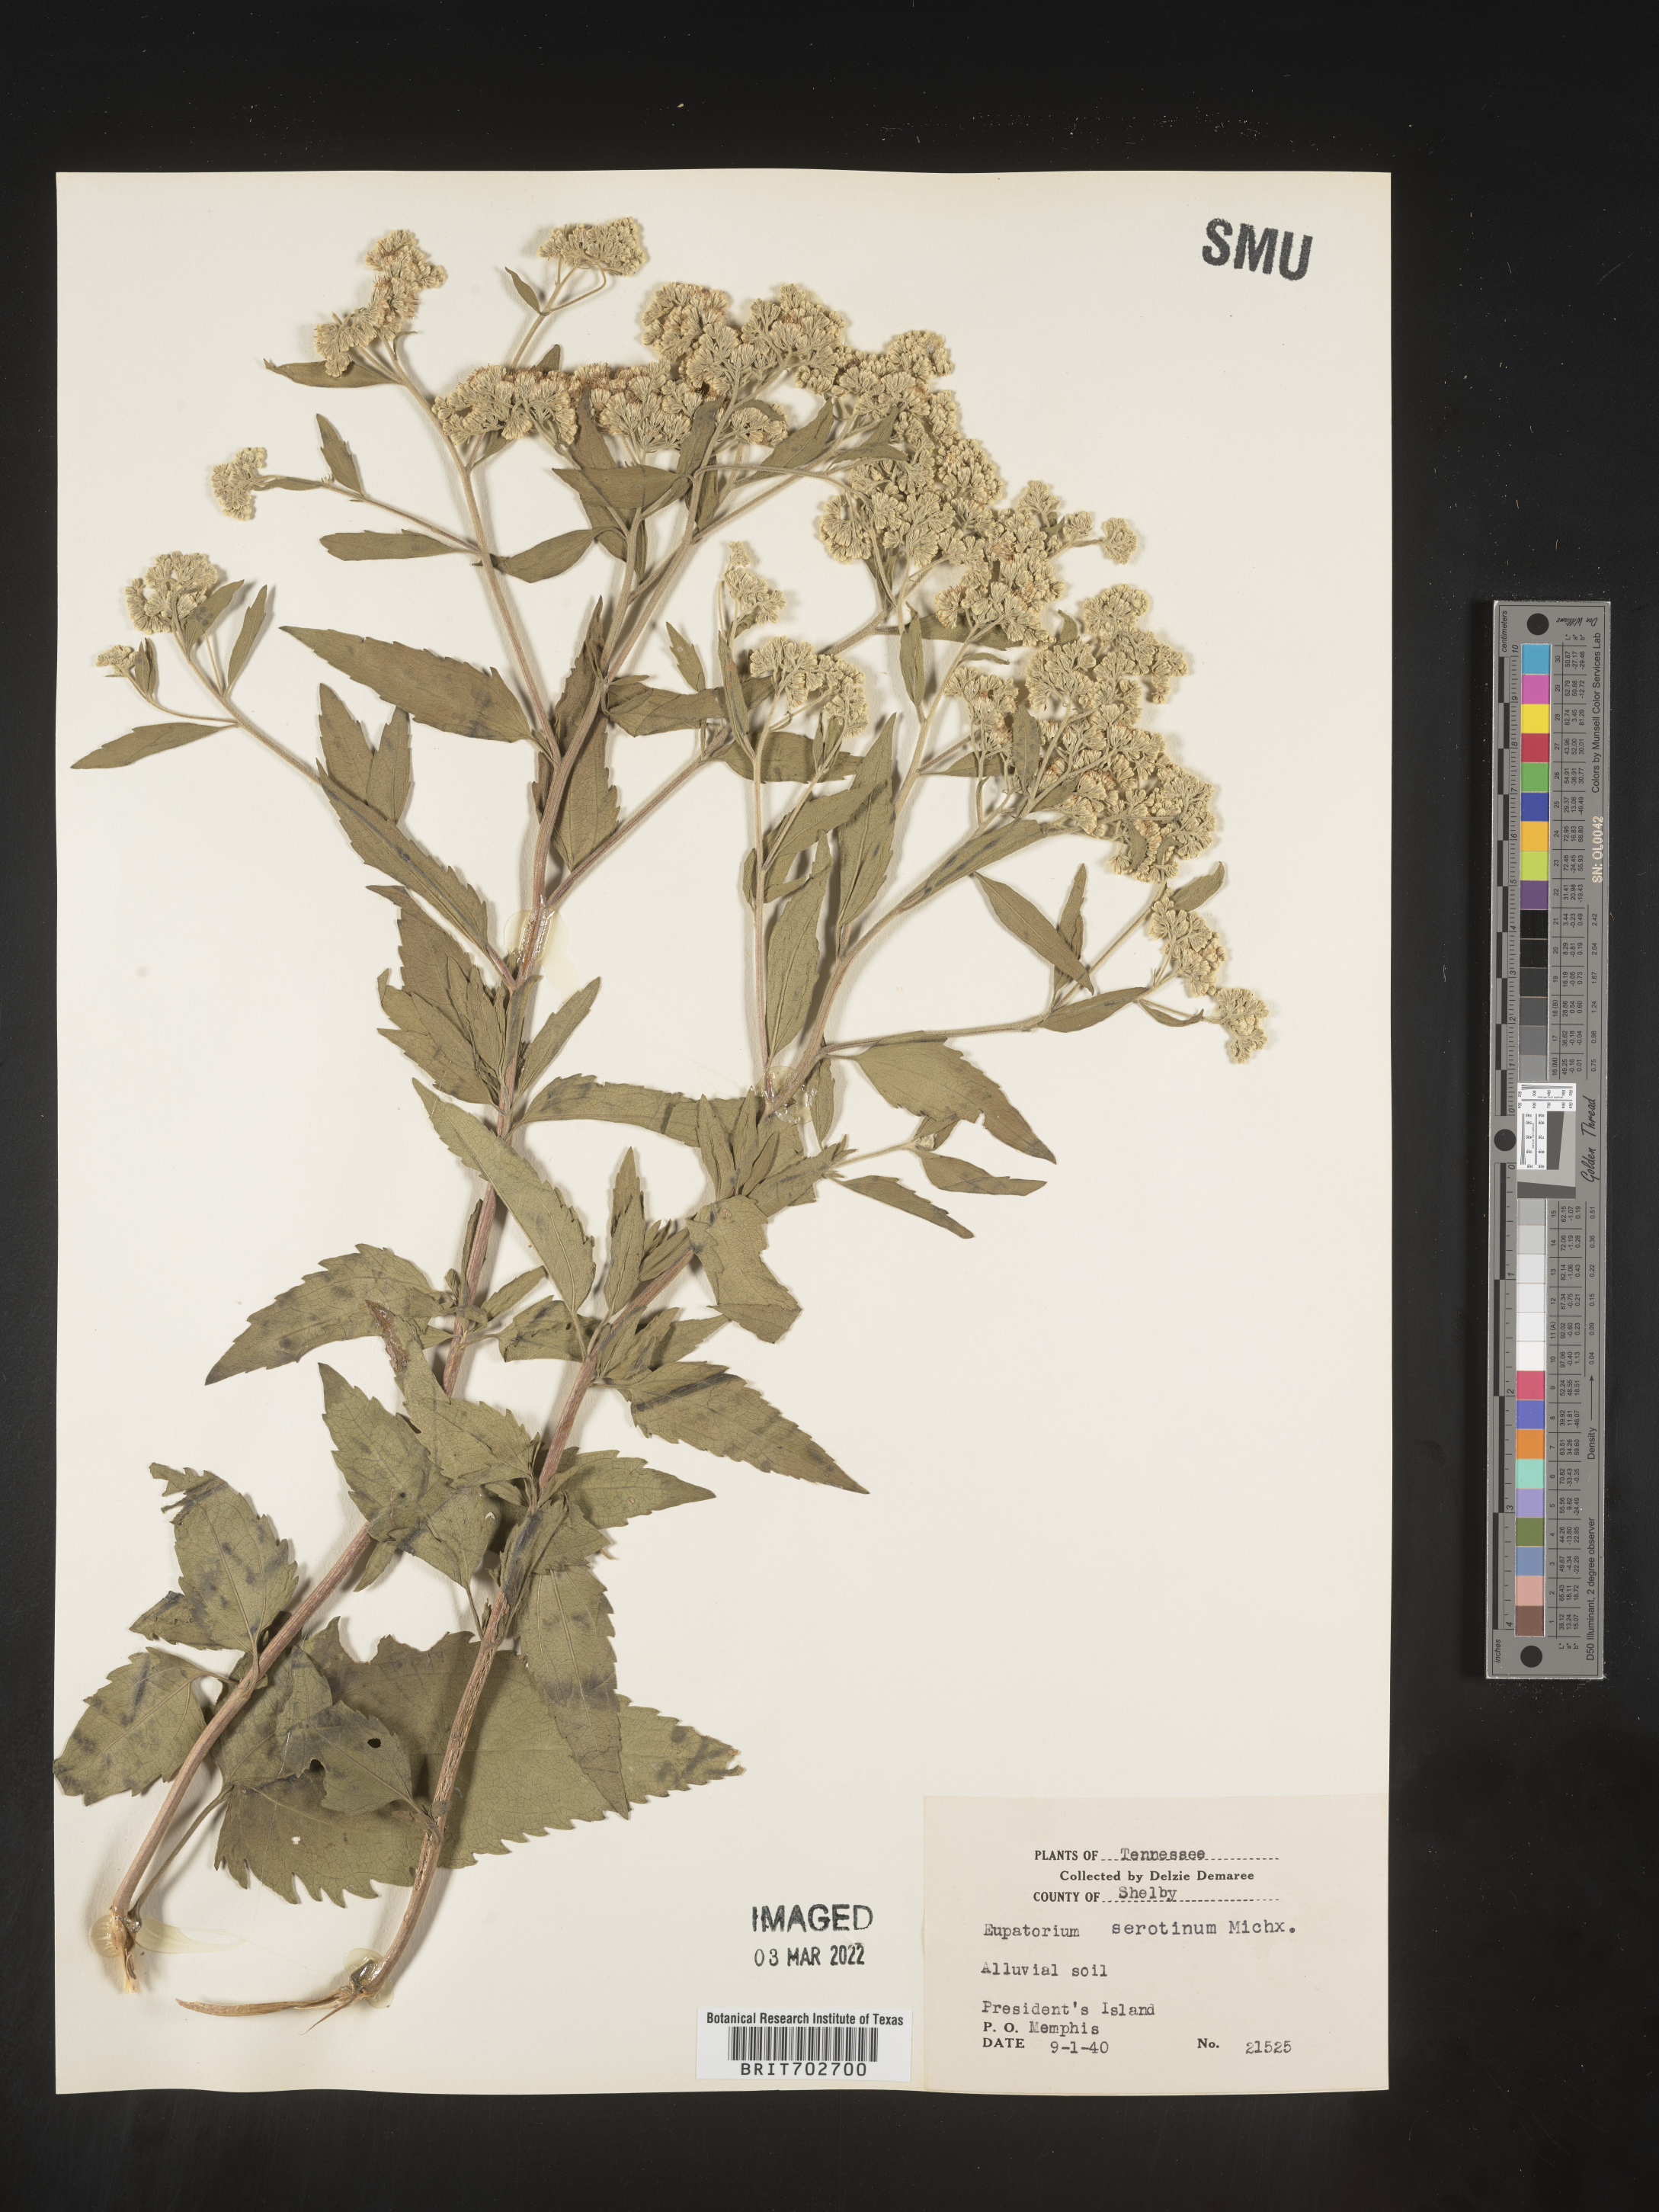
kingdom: Plantae
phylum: Tracheophyta
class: Magnoliopsida
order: Asterales
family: Asteraceae
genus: Eupatorium
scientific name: Eupatorium serotinum
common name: Late boneset
